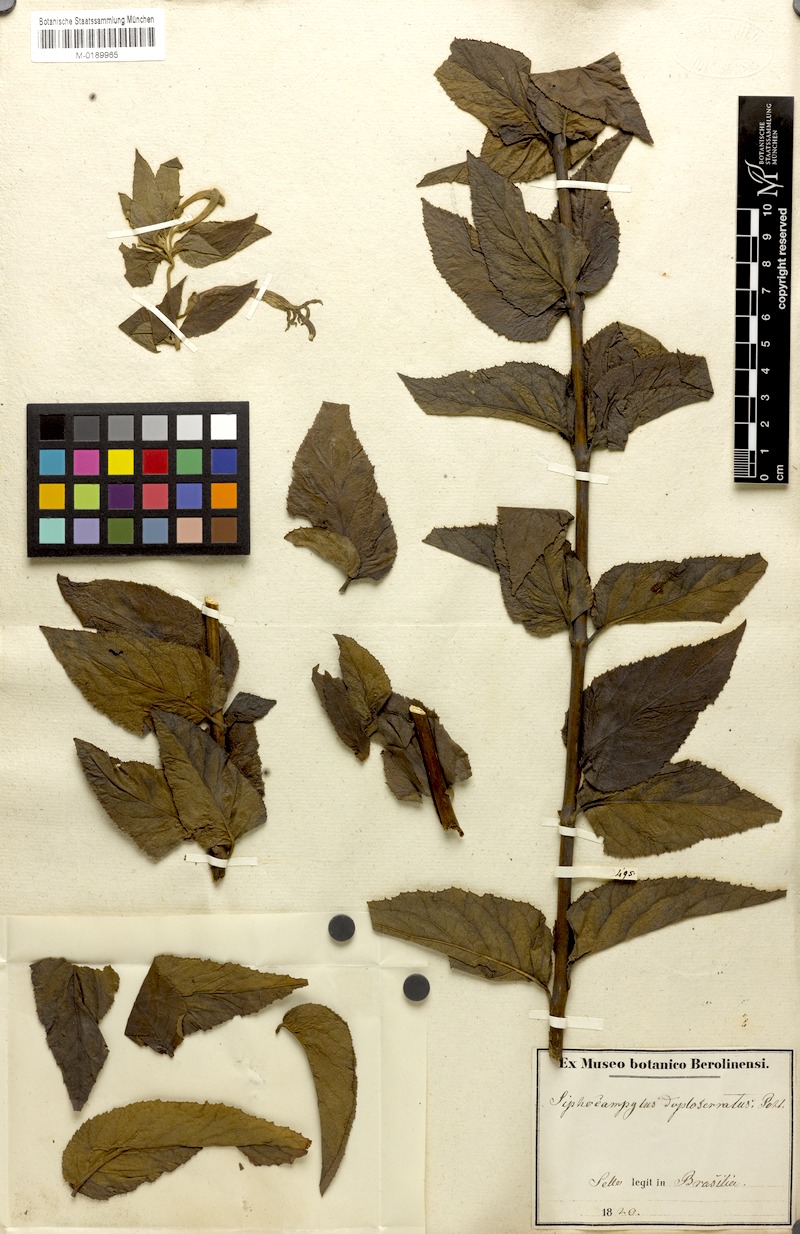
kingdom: Plantae
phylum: Tracheophyta
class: Magnoliopsida
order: Asterales
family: Campanulaceae
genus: Siphocampylus
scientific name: Siphocampylus duploserratus
